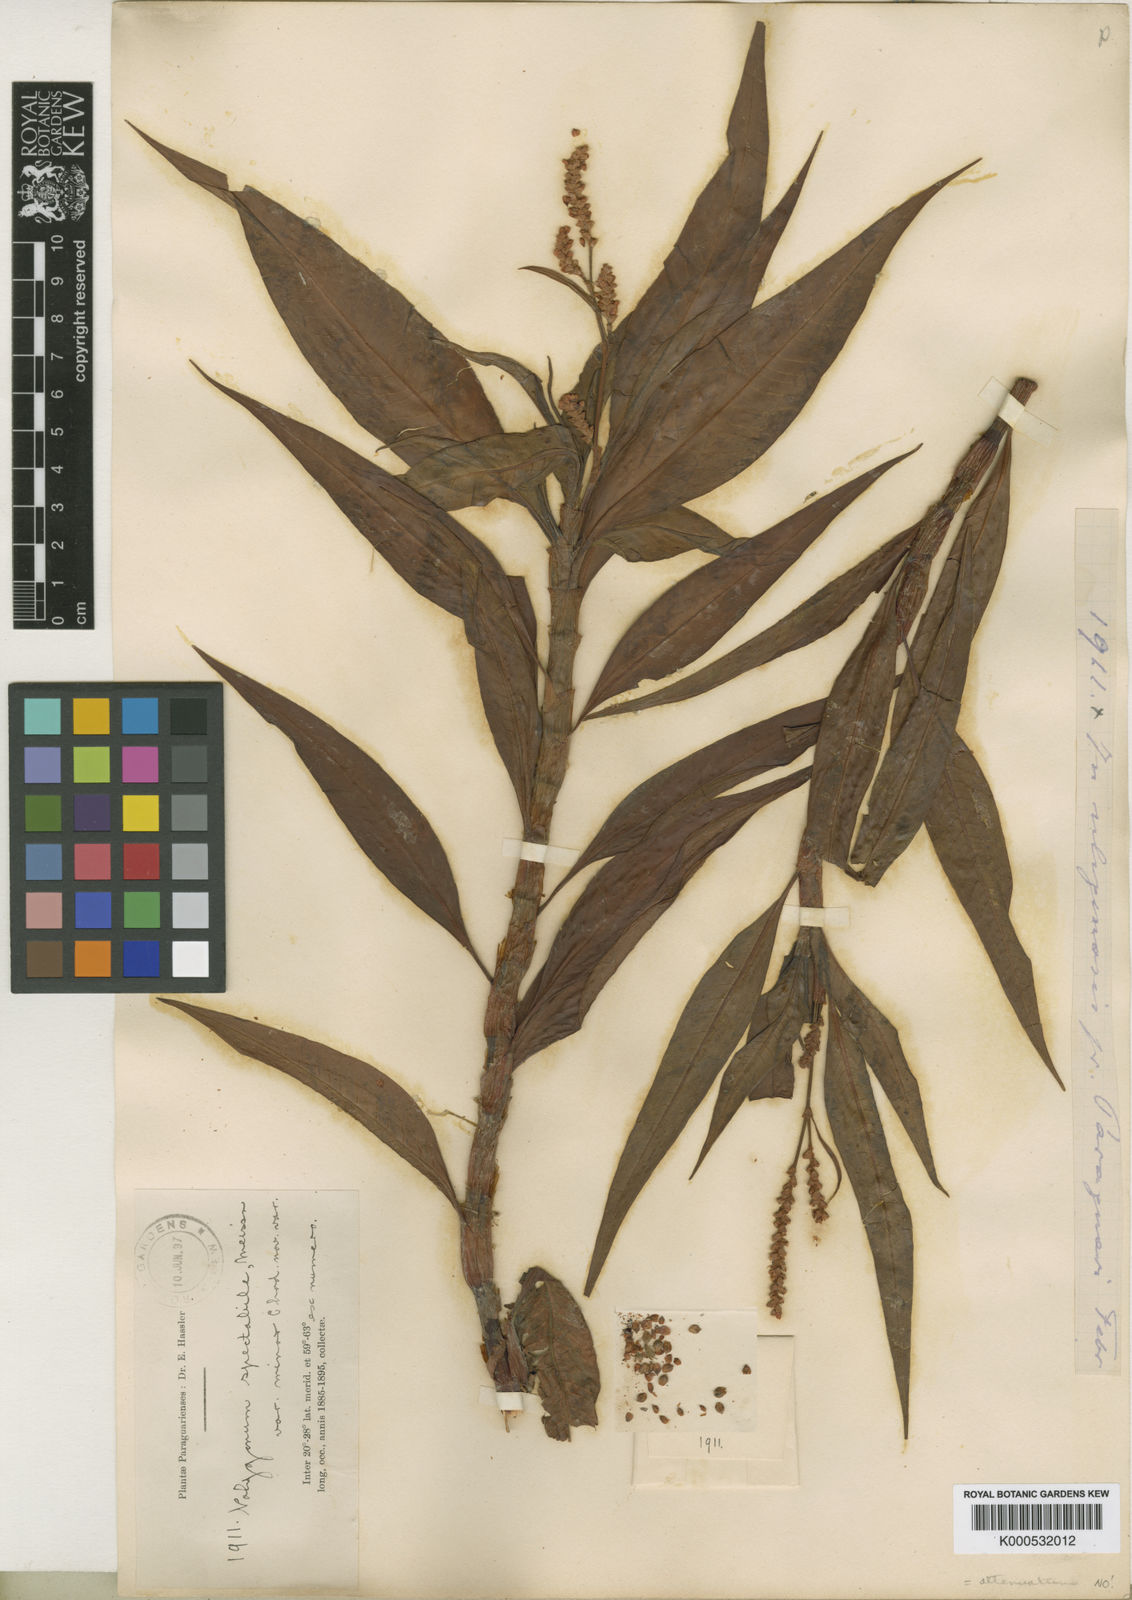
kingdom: Plantae
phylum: Tracheophyta
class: Magnoliopsida
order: Caryophyllales
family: Polygonaceae
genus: Persicaria
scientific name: Persicaria ferruginea
